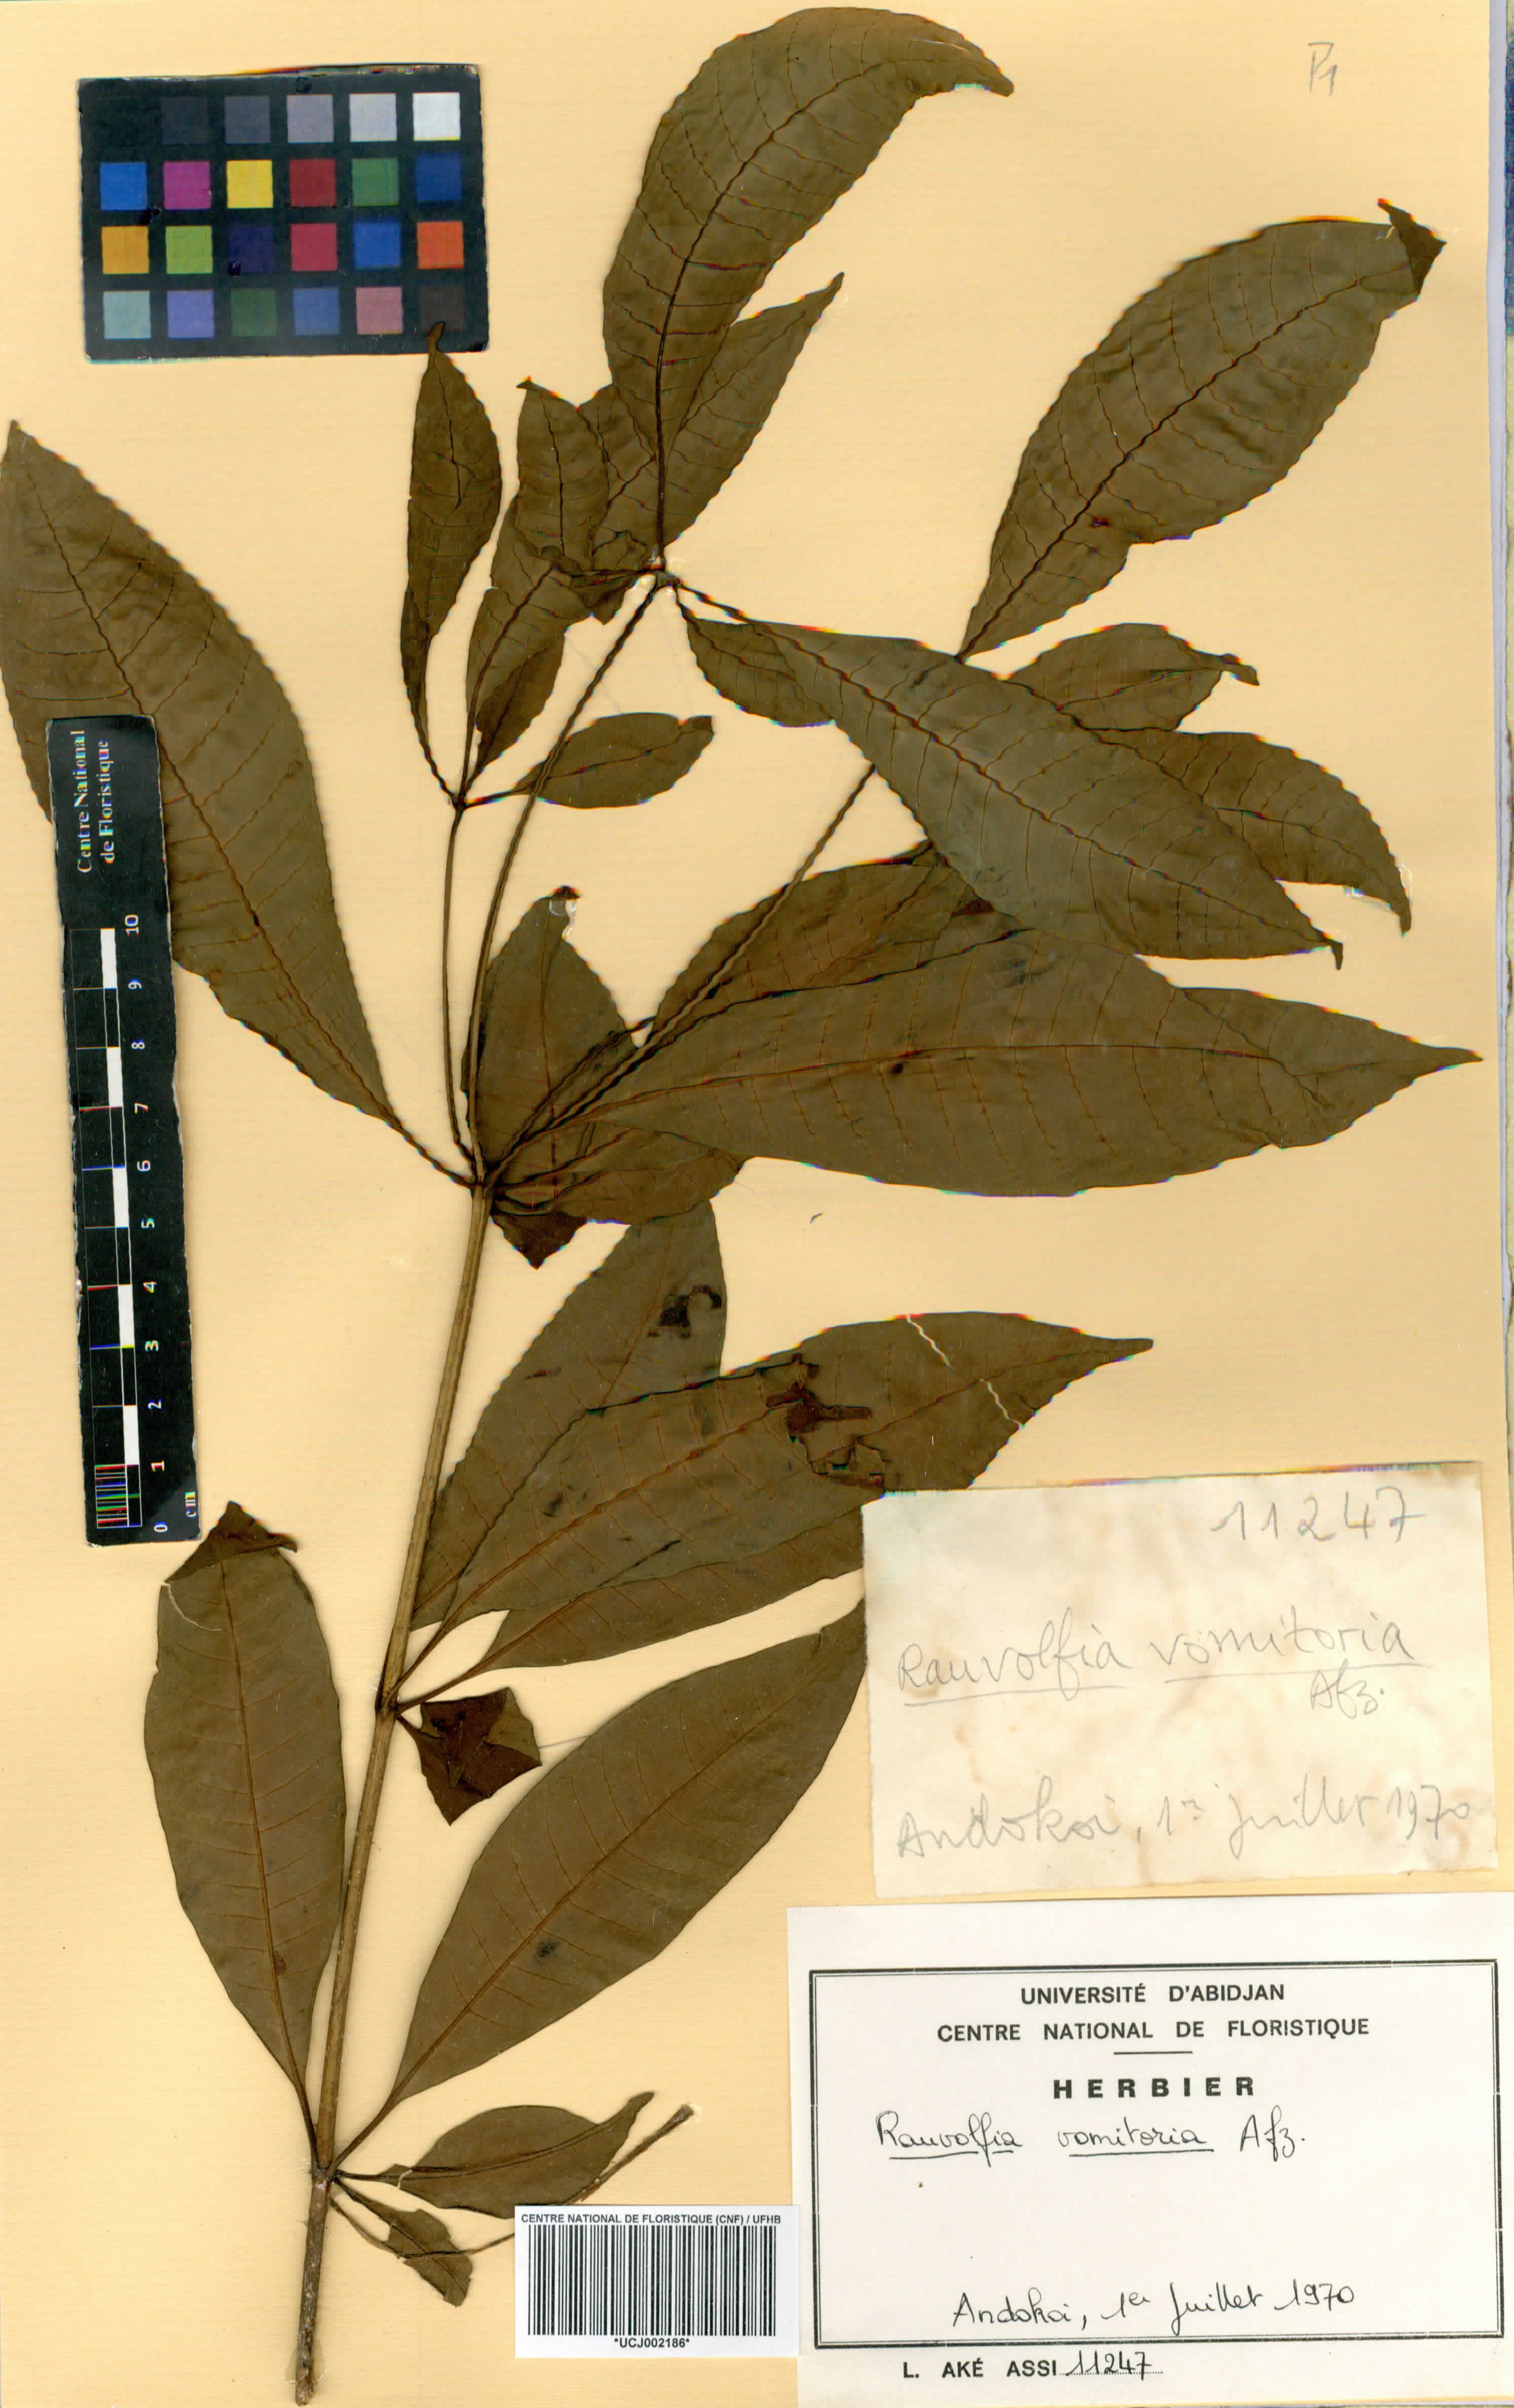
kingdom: Plantae
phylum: Tracheophyta
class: Magnoliopsida
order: Gentianales
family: Apocynaceae
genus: Rauvolfia
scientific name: Rauvolfia vomitoria
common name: Poison devil's-pepper
